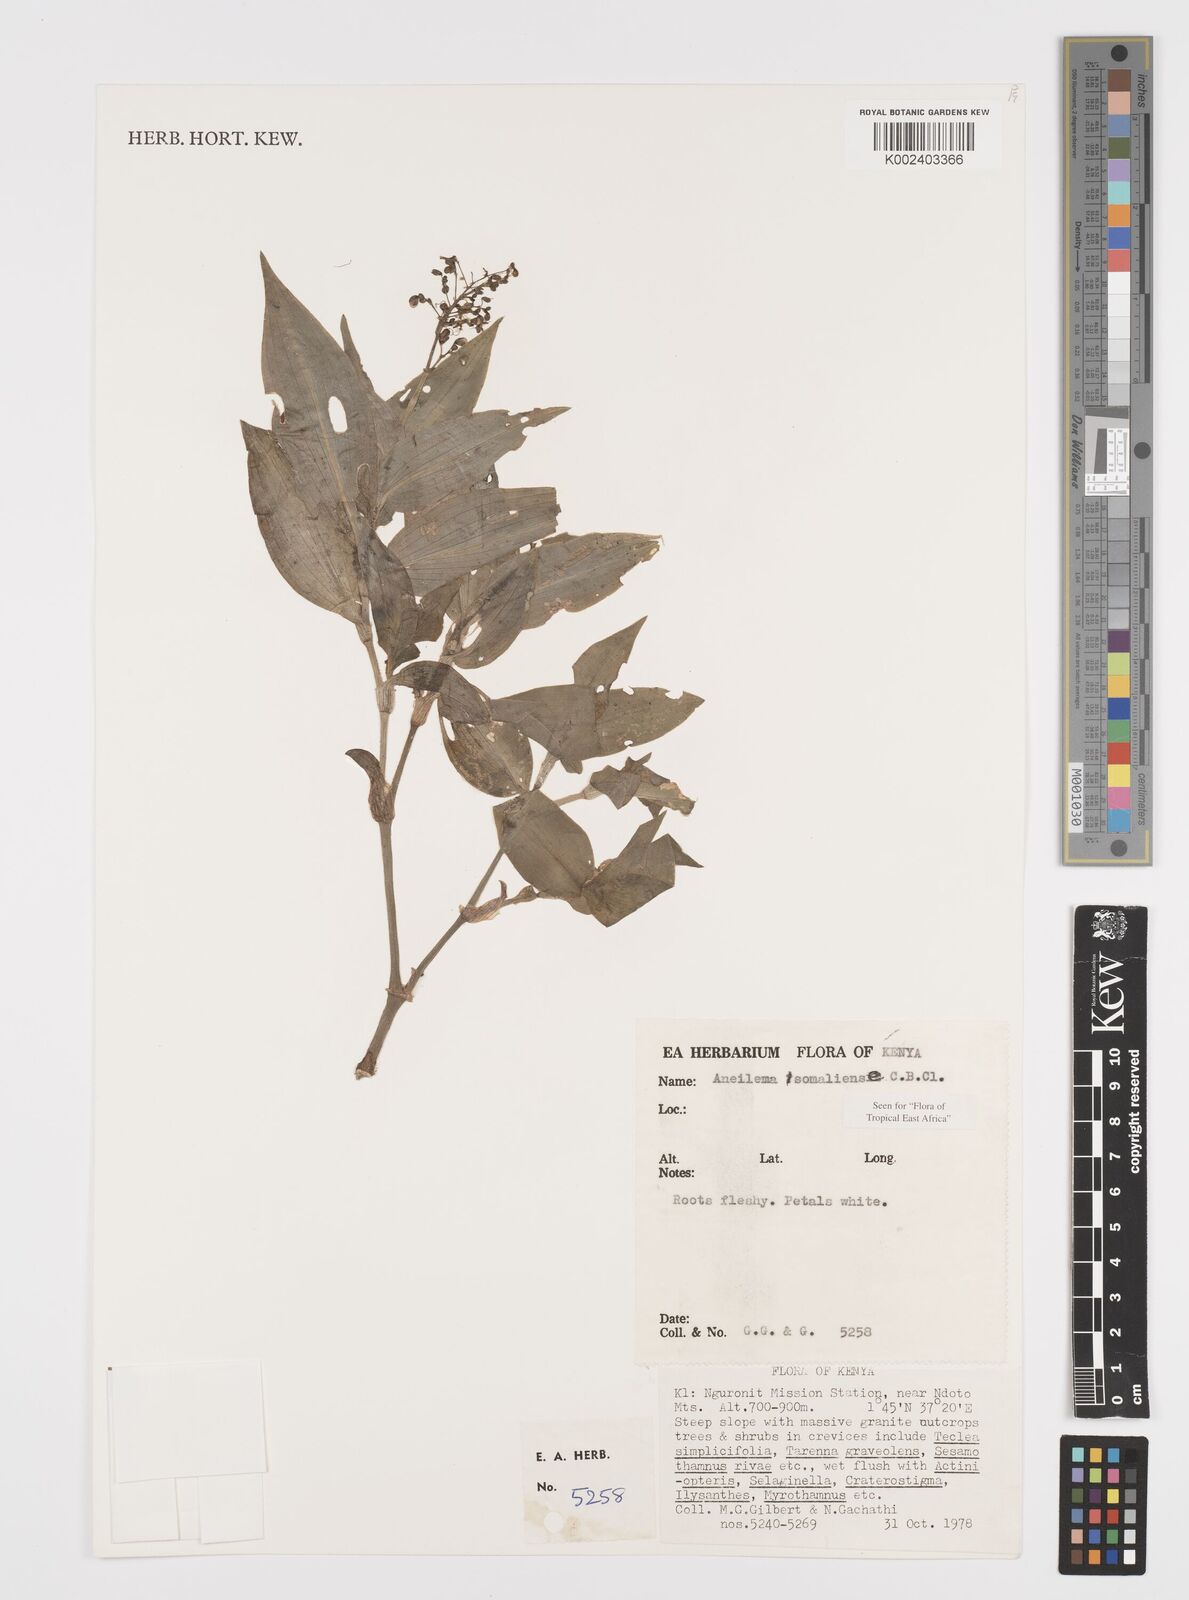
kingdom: Plantae
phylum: Tracheophyta
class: Liliopsida
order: Commelinales
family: Commelinaceae
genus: Aneilema
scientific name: Aneilema somaliense
